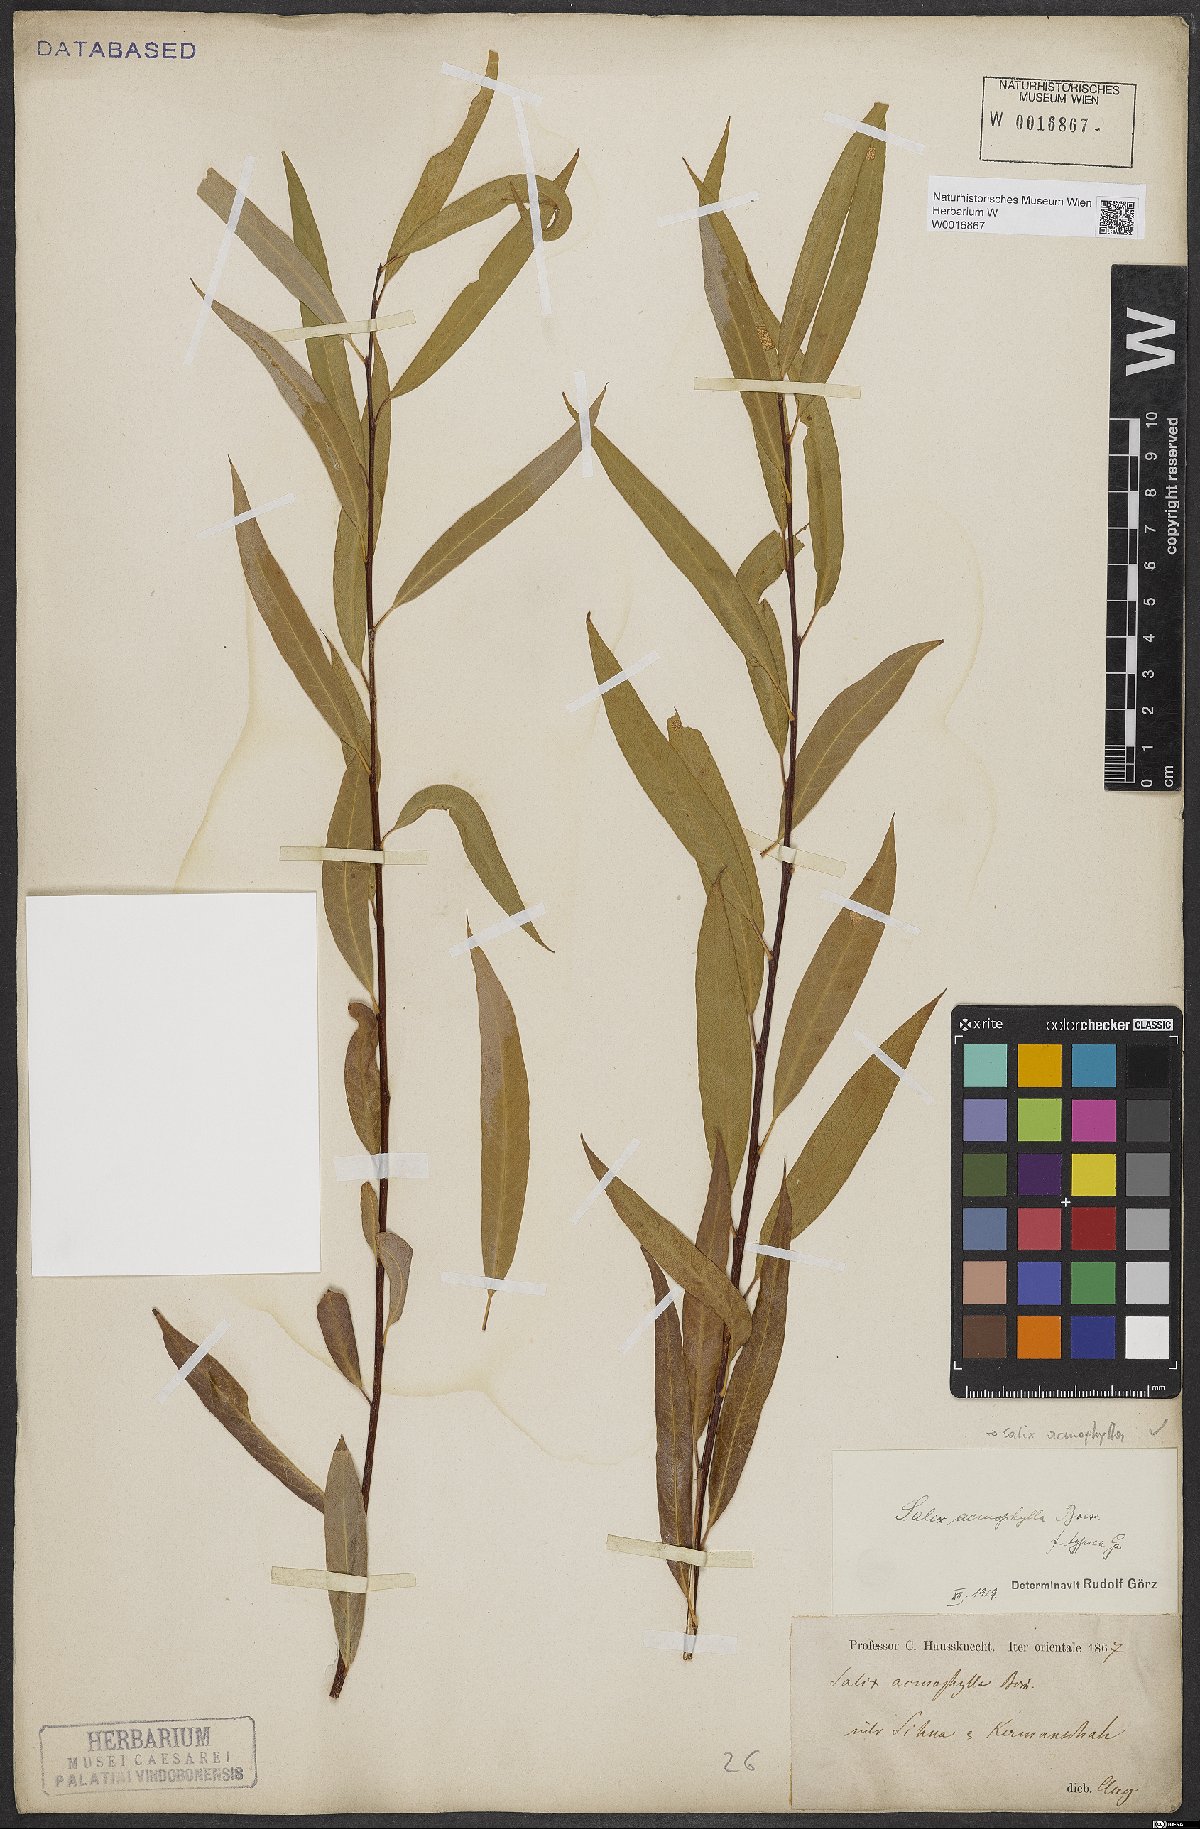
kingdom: Plantae
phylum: Tracheophyta
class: Magnoliopsida
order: Malpighiales
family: Salicaceae
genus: Salix
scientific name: Salix acmophylla
